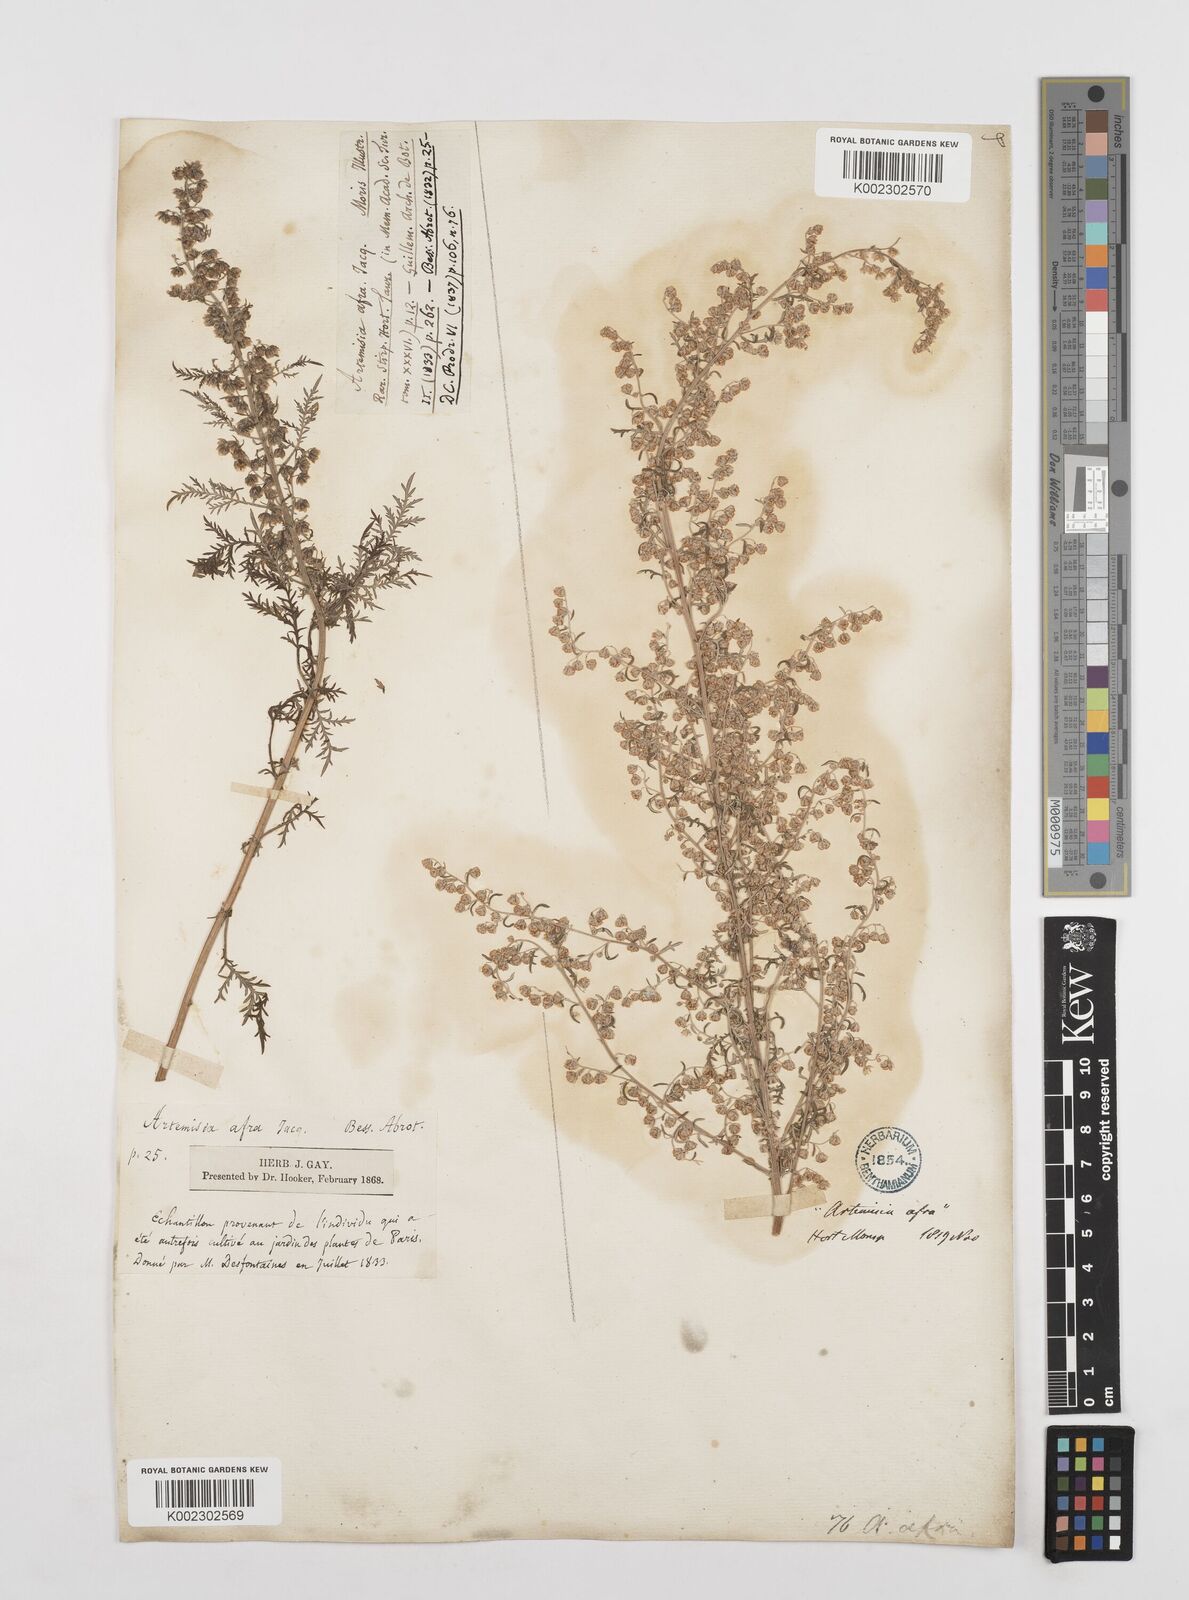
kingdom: Plantae
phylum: Tracheophyta
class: Magnoliopsida
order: Asterales
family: Asteraceae
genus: Artemisia
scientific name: Artemisia afra
